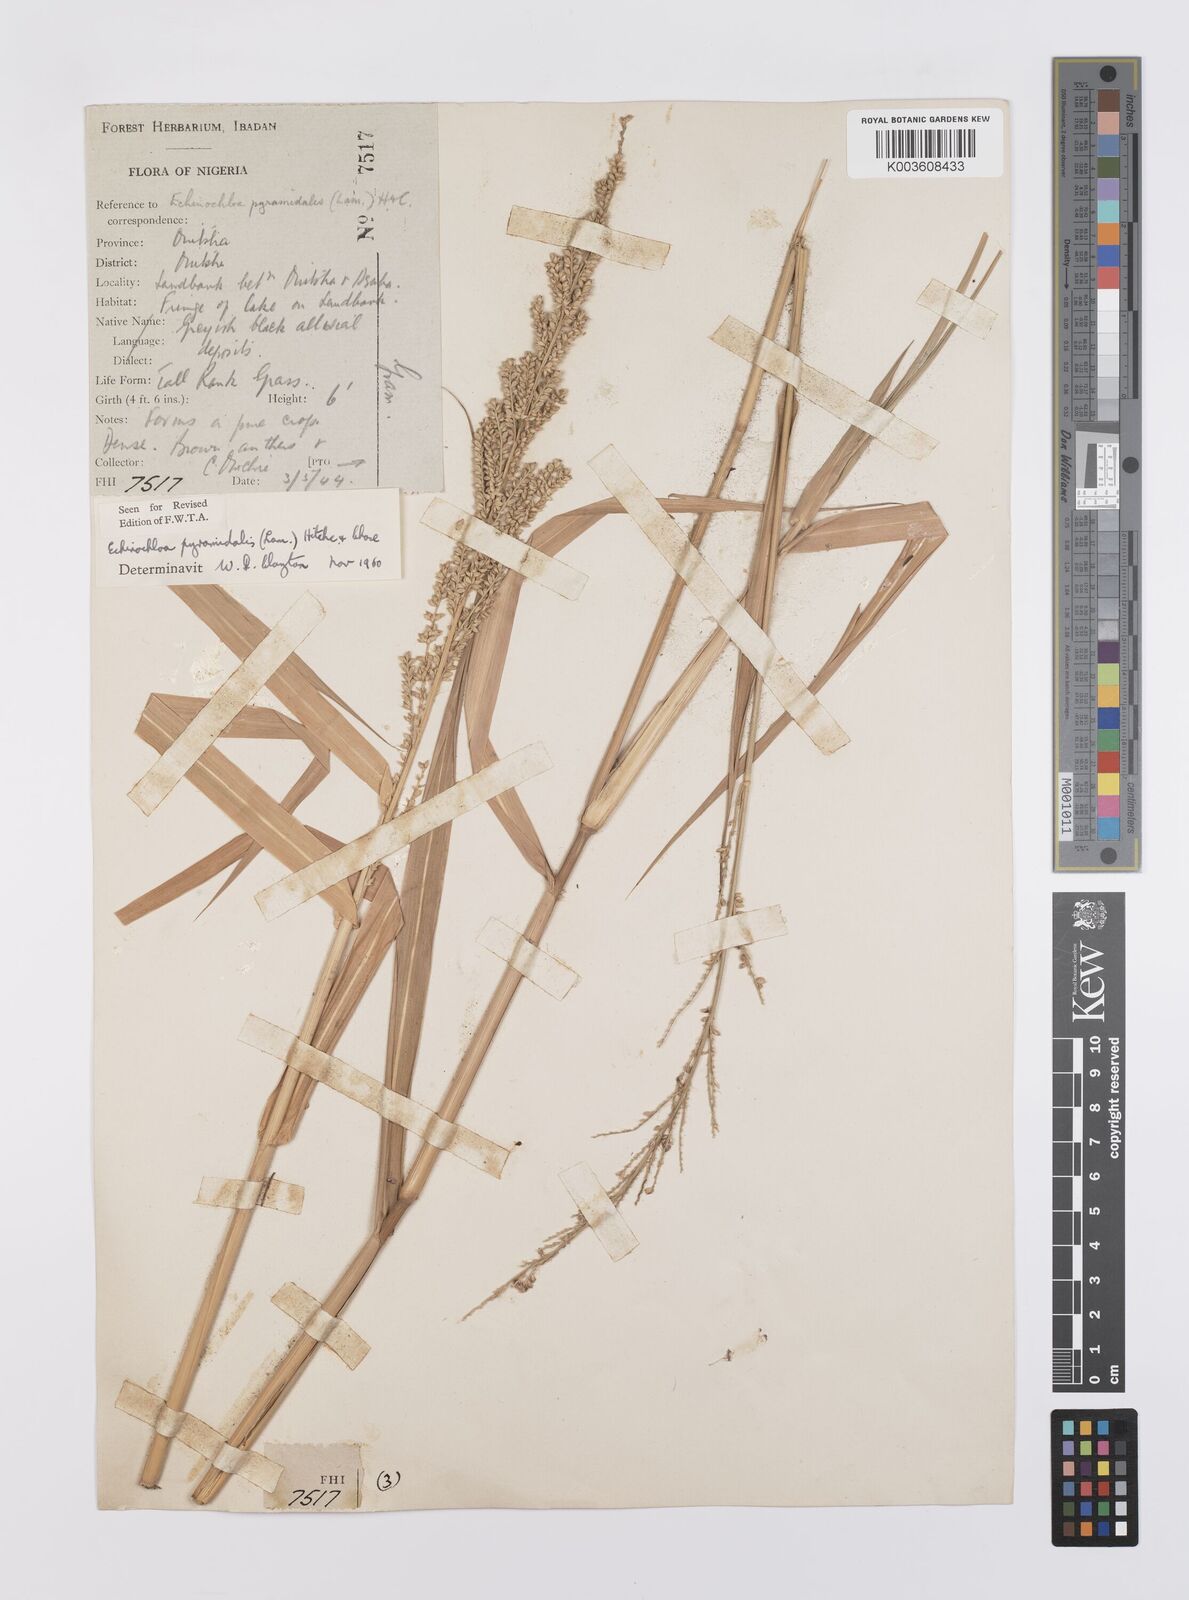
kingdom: Plantae
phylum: Tracheophyta
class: Liliopsida
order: Poales
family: Poaceae
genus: Echinochloa
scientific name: Echinochloa pyramidalis
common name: Antelope grass
